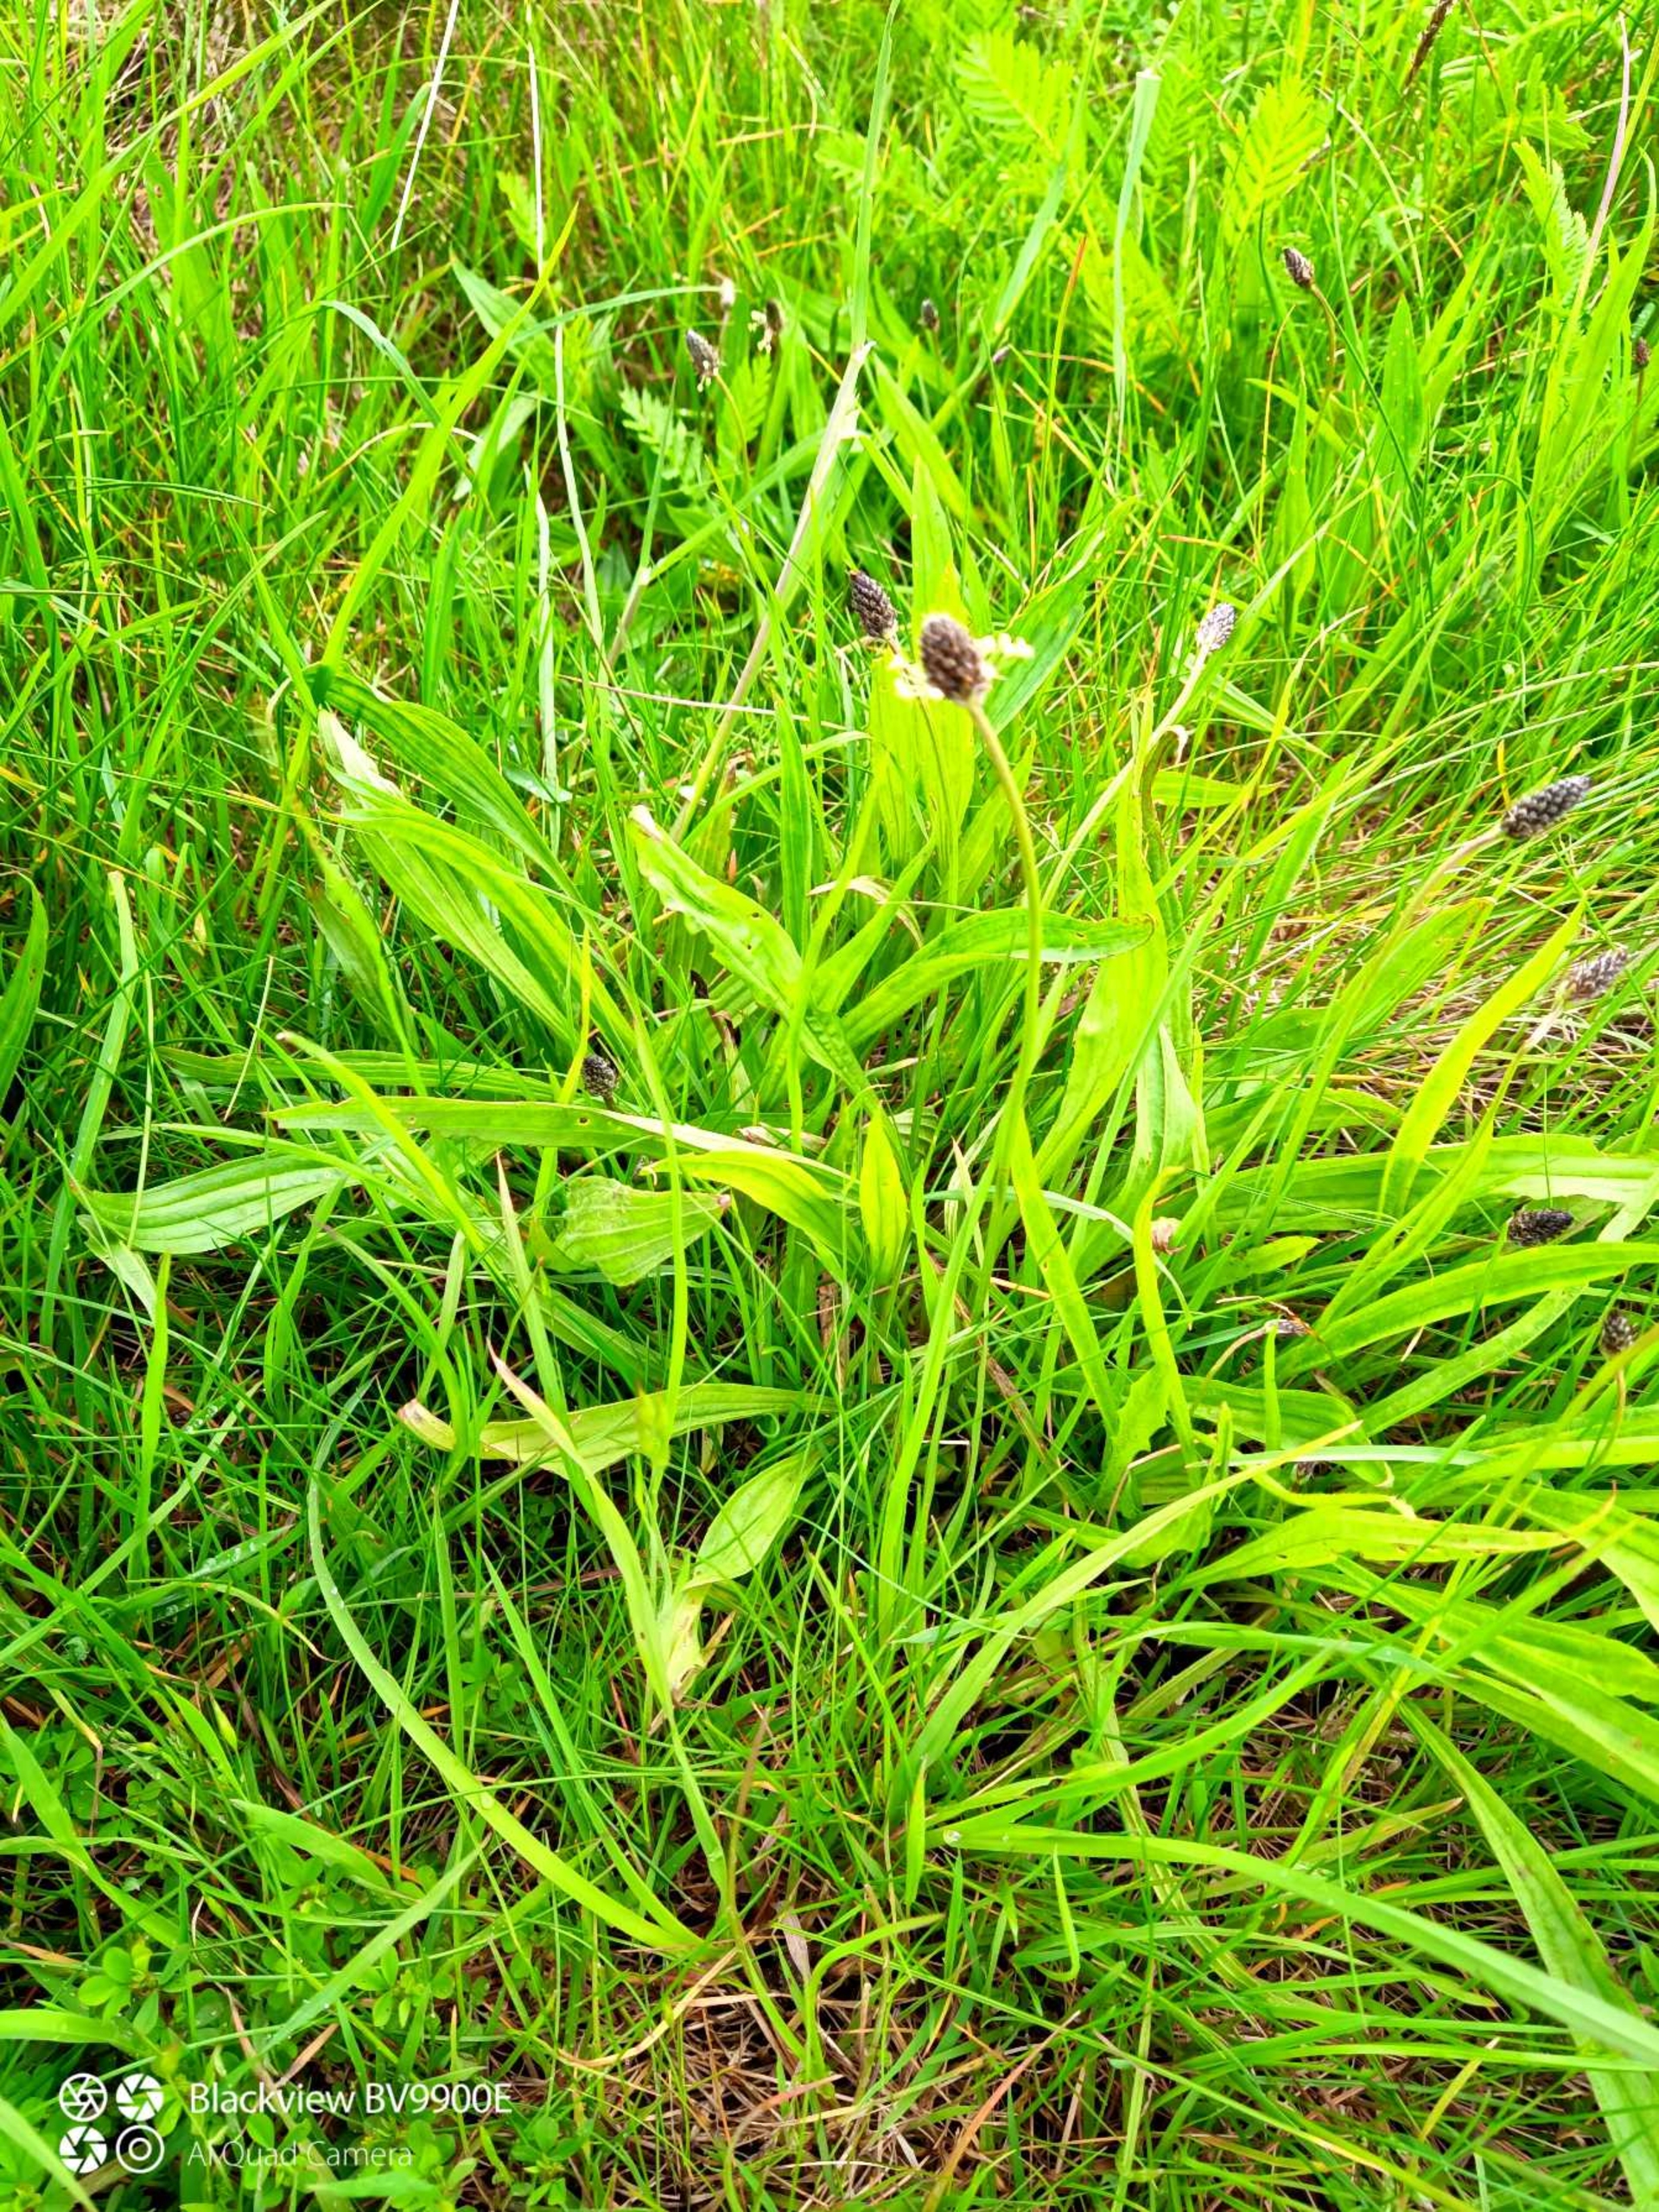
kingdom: Plantae
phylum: Tracheophyta
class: Magnoliopsida
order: Lamiales
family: Plantaginaceae
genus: Plantago
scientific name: Plantago lanceolata
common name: Lancet-vejbred
